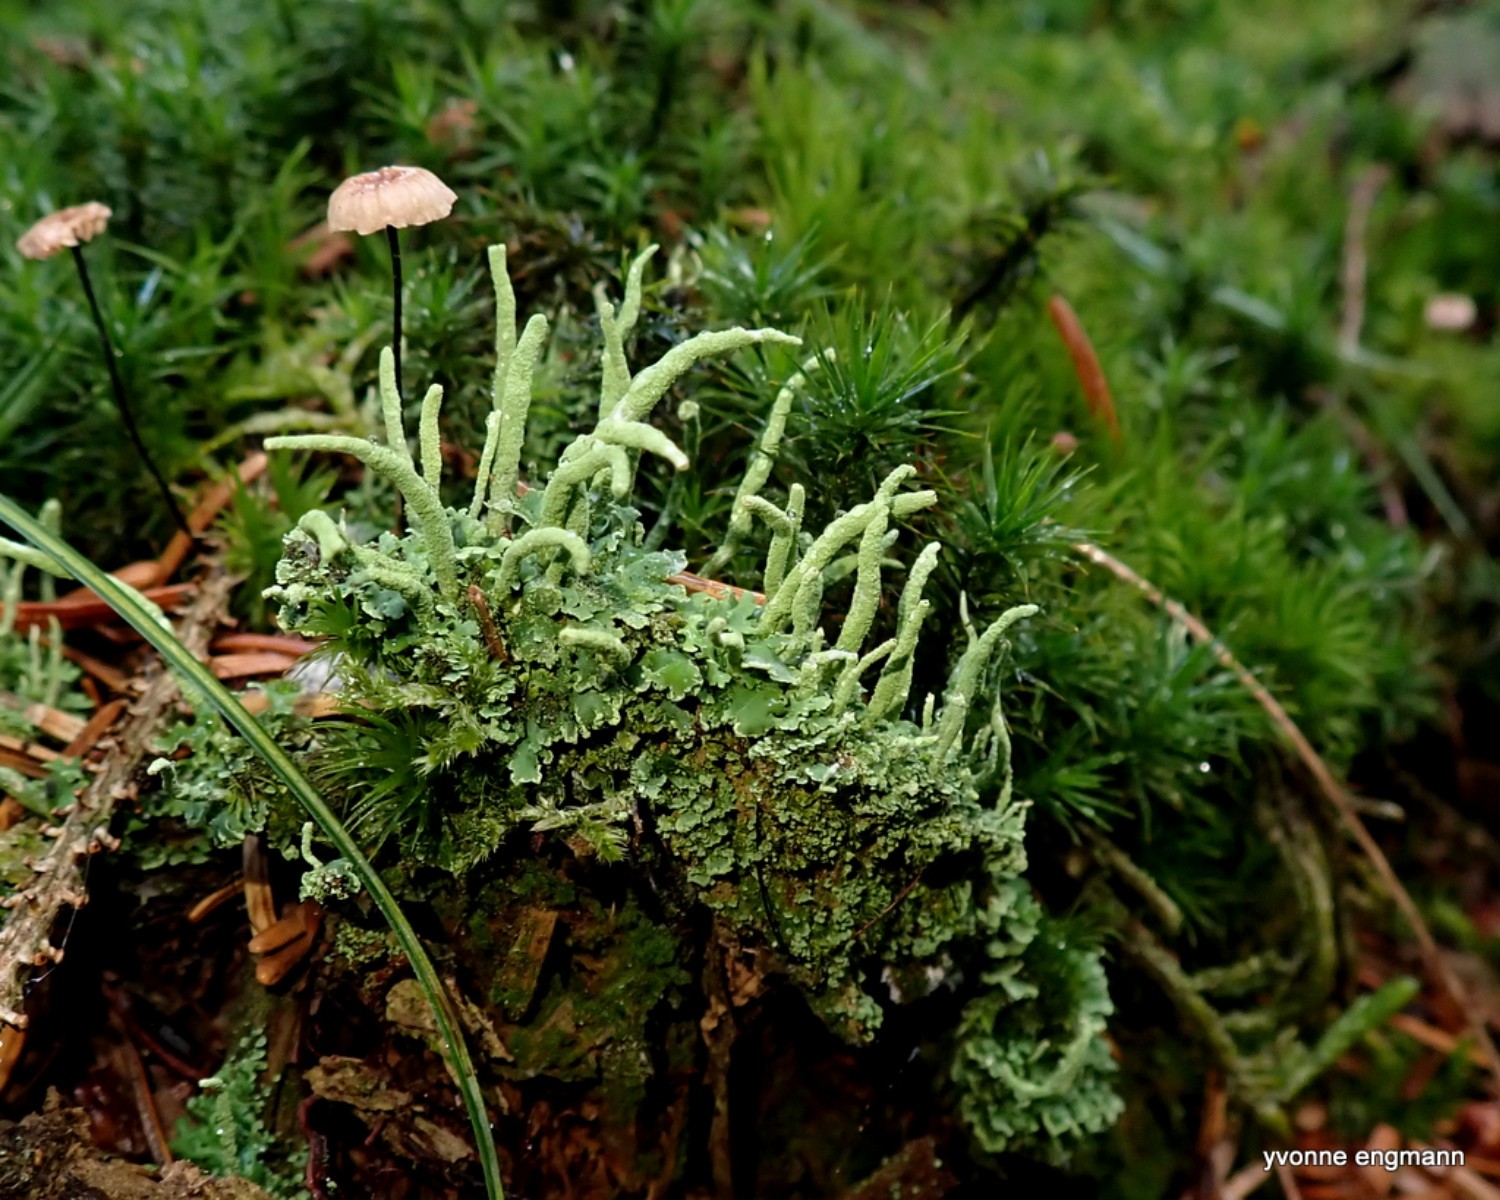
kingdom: Fungi
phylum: Ascomycota
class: Lecanoromycetes
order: Lecanorales
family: Cladoniaceae
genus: Cladonia
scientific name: Cladonia coniocraea
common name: træfods-bægerlav
